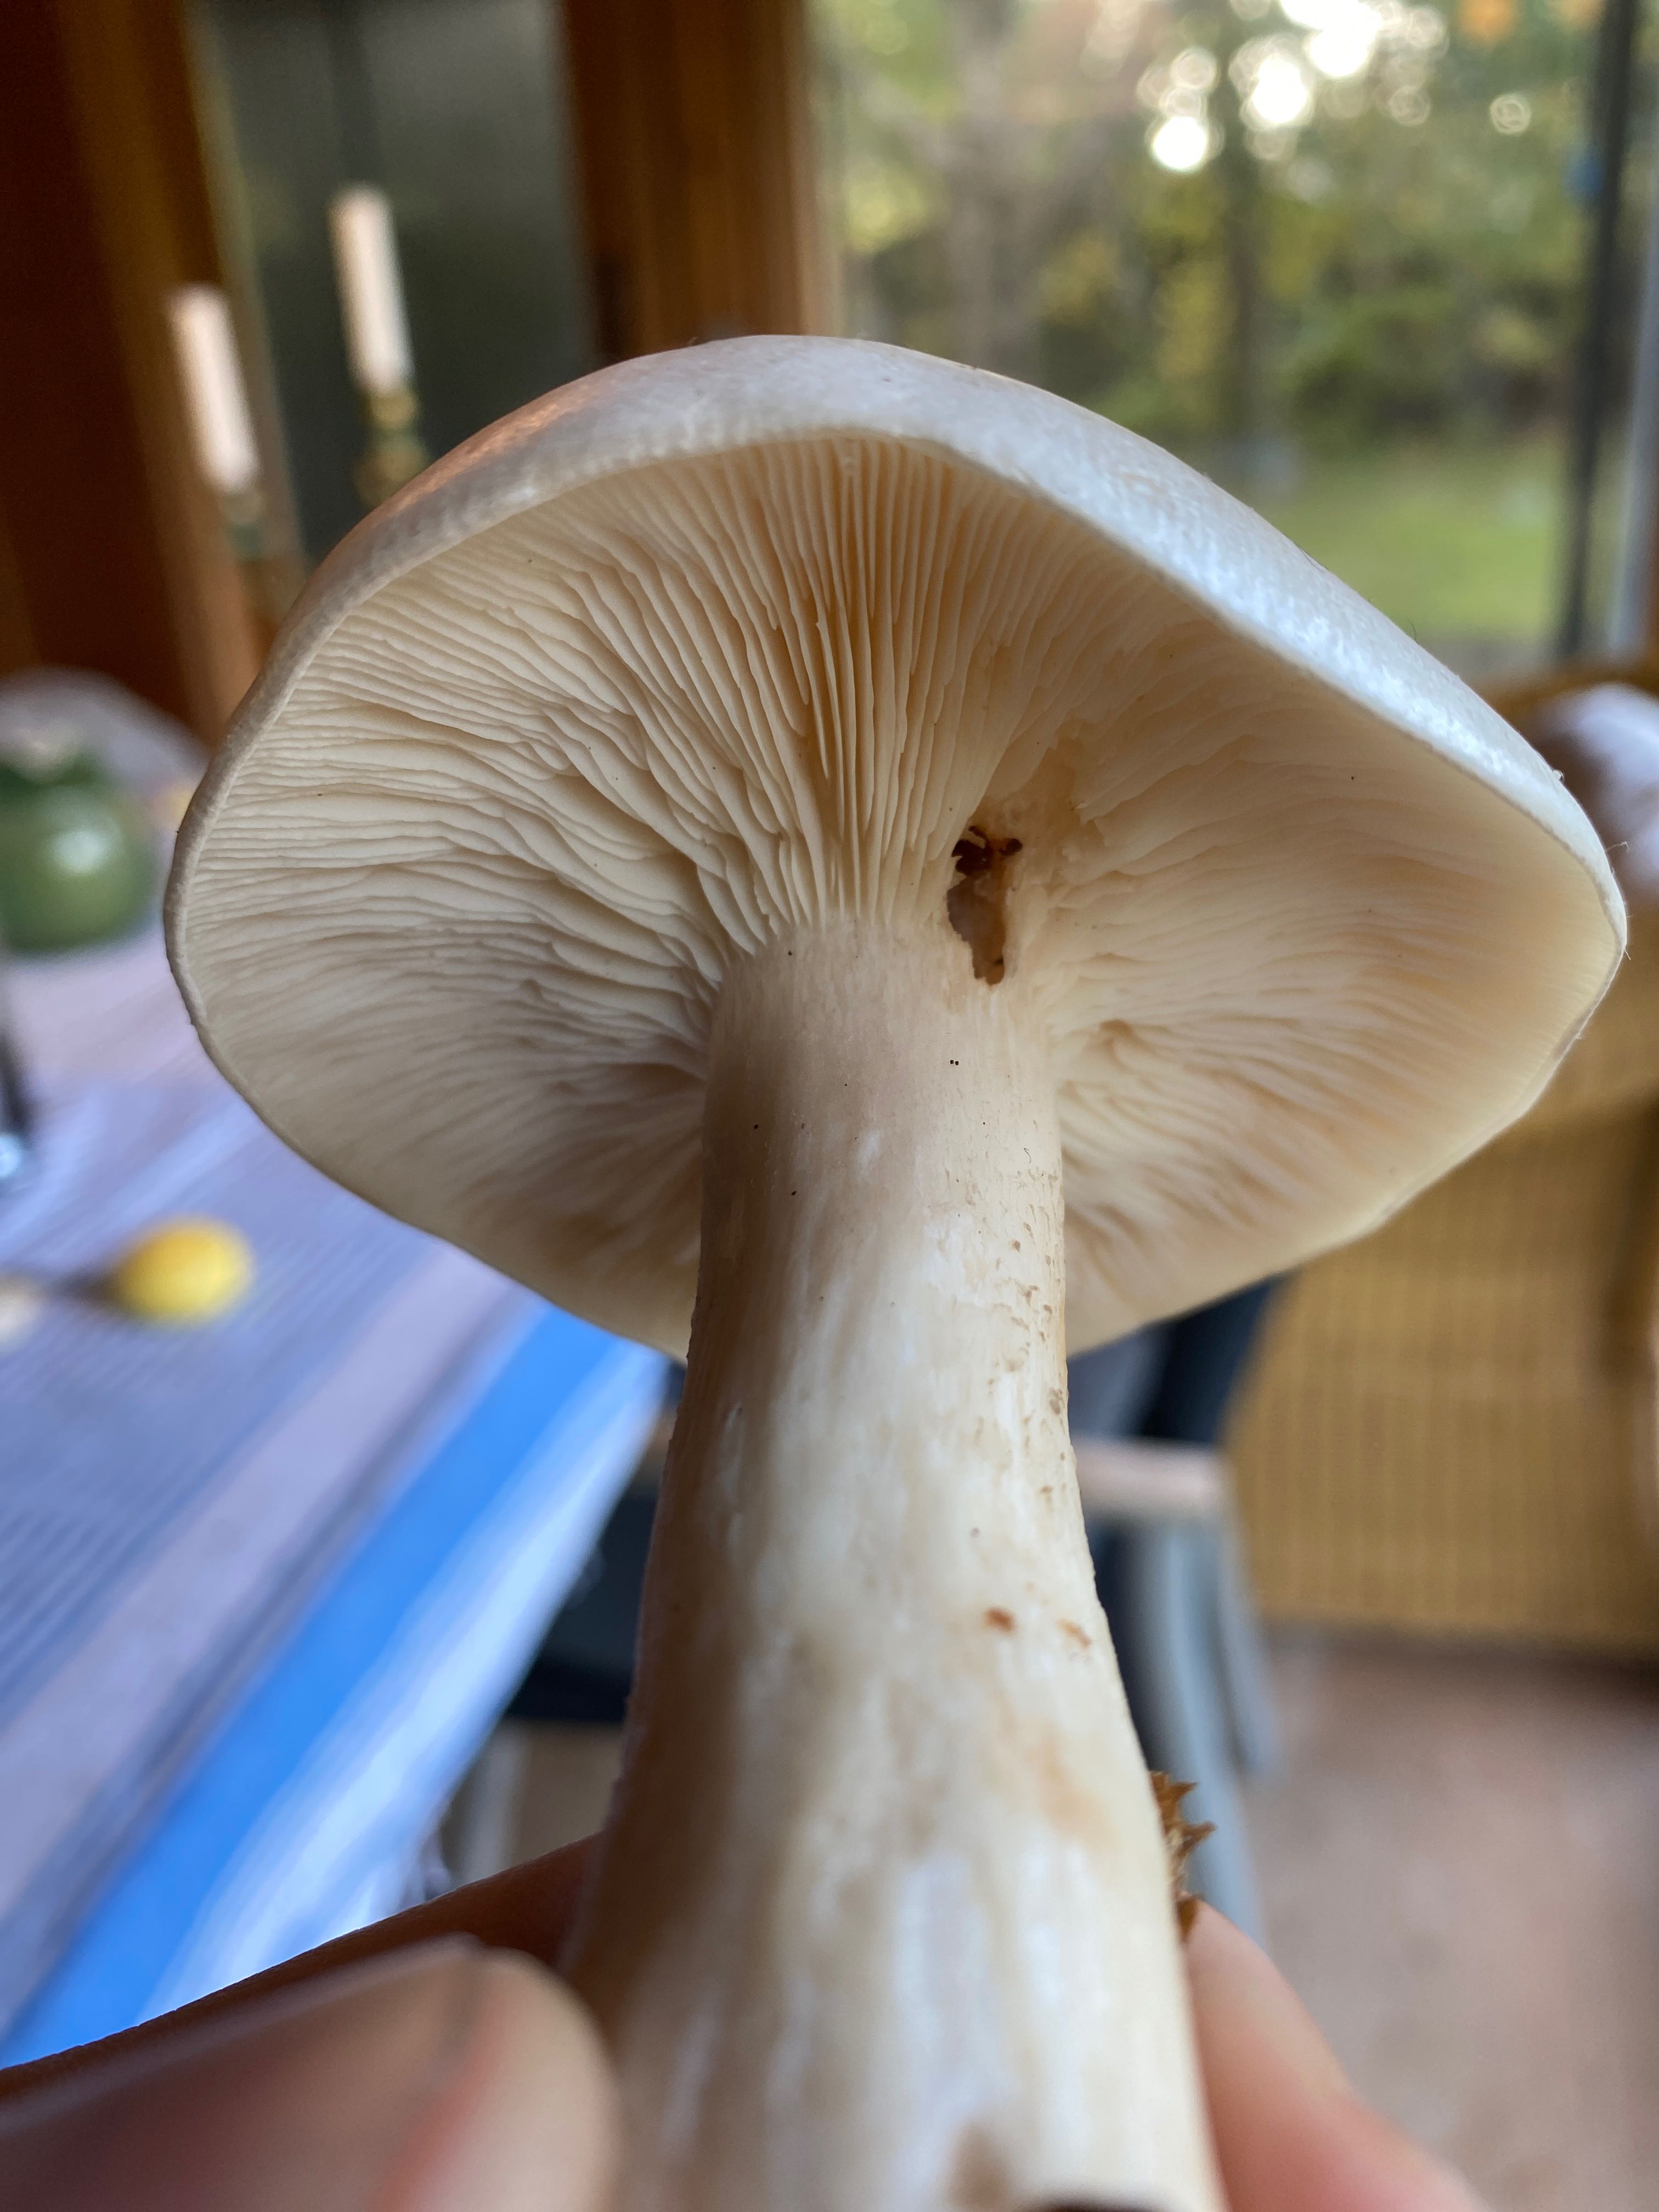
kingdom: Fungi
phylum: Basidiomycota
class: Agaricomycetes
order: Agaricales
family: Tricholomataceae
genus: Clitocybe
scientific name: Clitocybe nebularis
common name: tåge-tragthat
